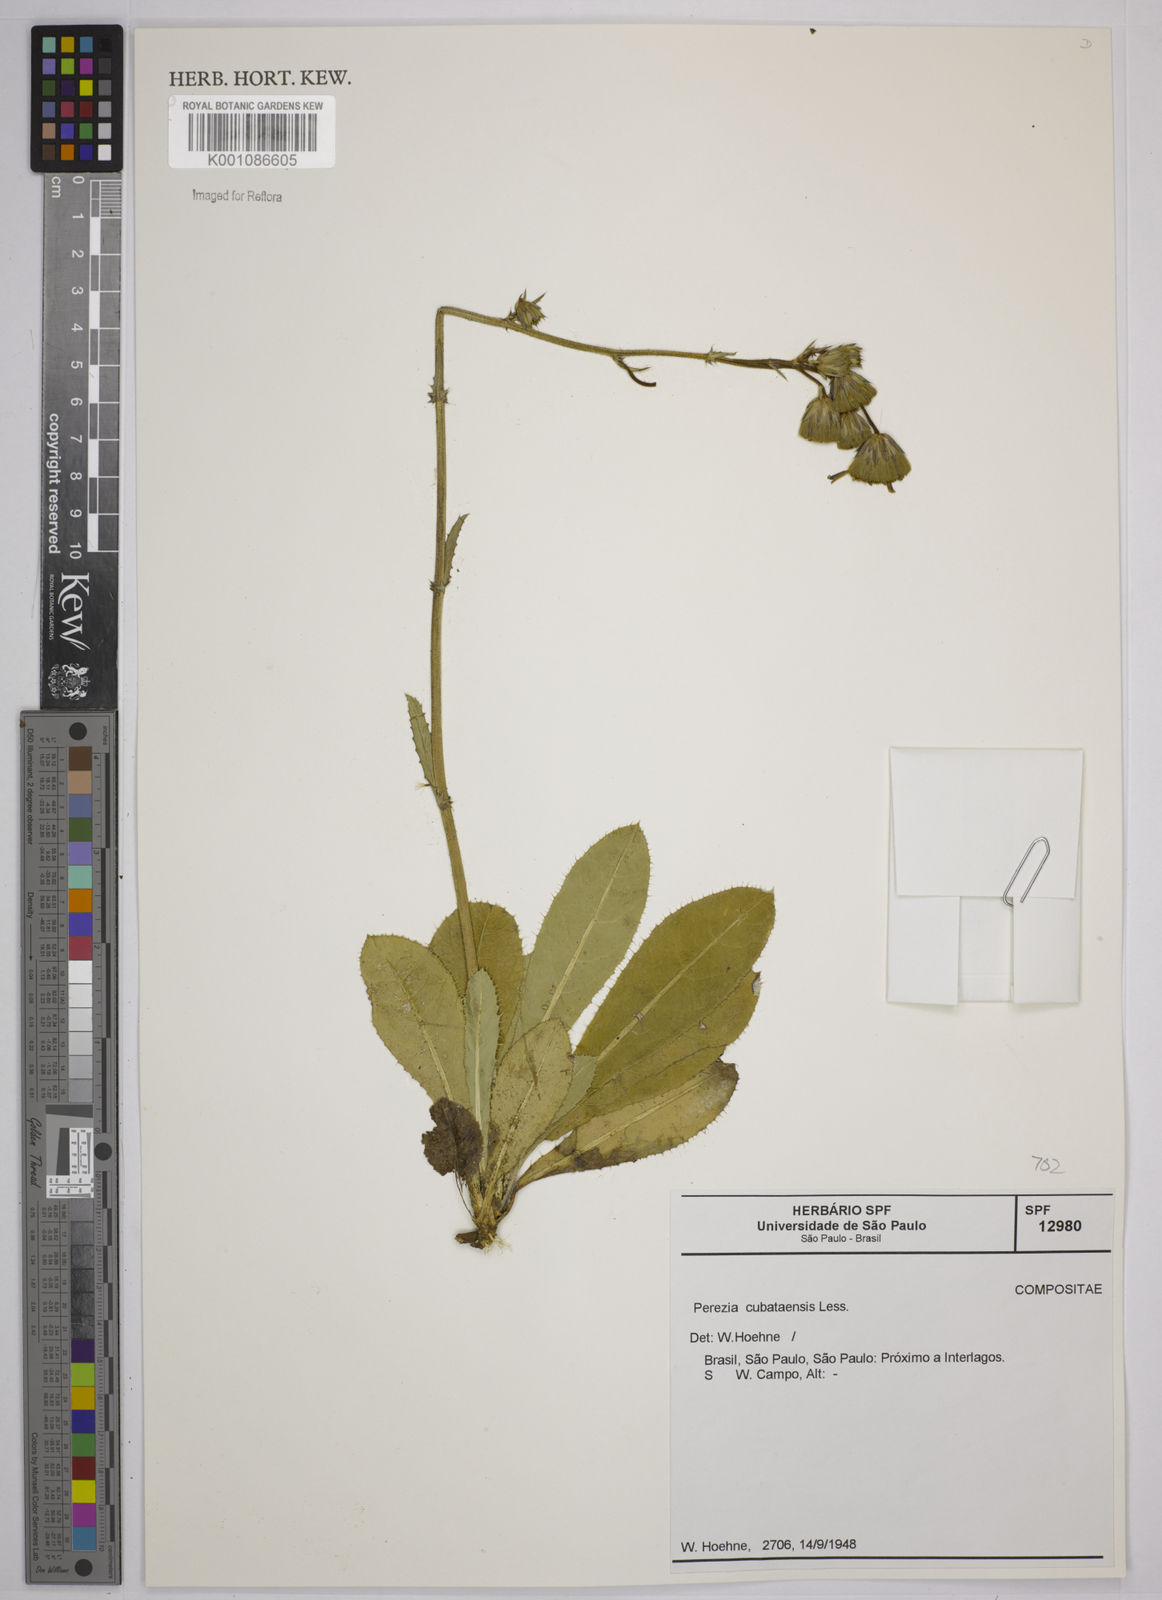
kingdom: Plantae
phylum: Tracheophyta
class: Magnoliopsida
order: Asterales
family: Asteraceae
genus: Perezia
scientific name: Perezia squarrosa
